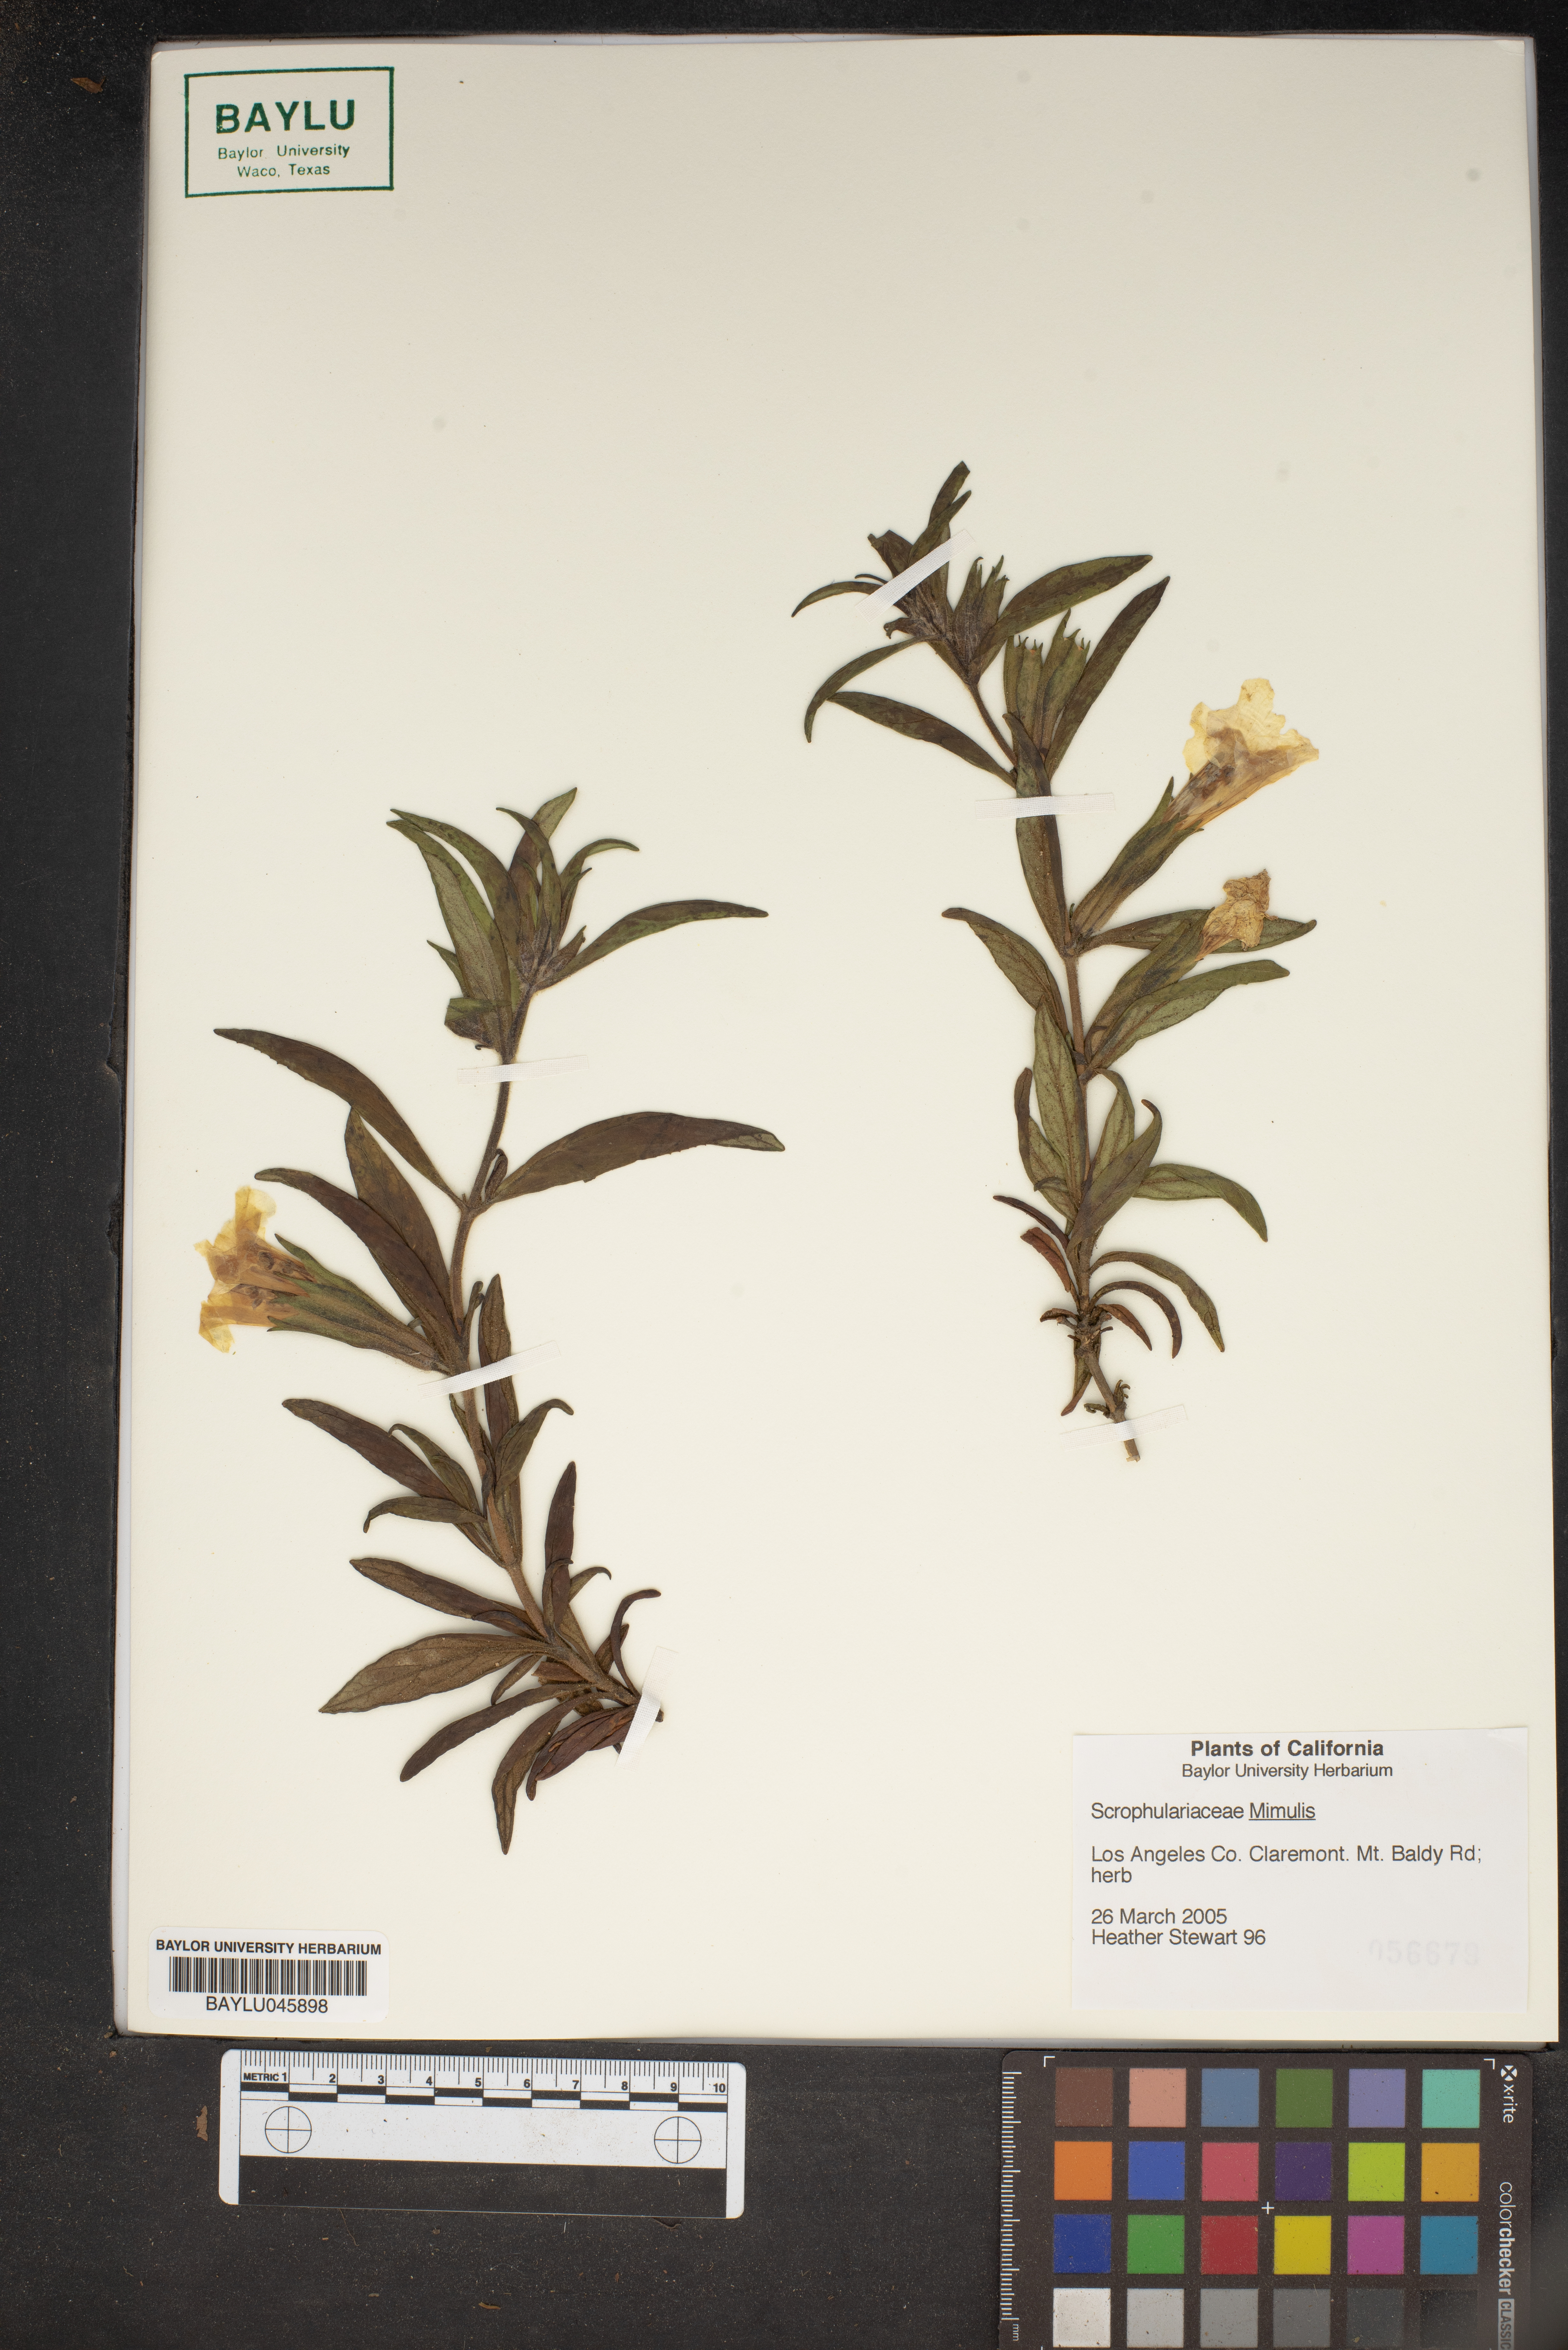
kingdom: Plantae
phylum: Tracheophyta
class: Magnoliopsida
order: Lamiales
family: Phrymaceae
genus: Mimulus
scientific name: Mimulus
